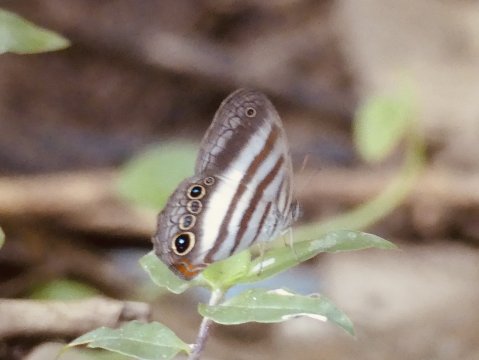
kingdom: Animalia
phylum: Arthropoda
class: Insecta
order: Lepidoptera
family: Nymphalidae
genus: Pareuptychia
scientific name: Pareuptychia hesione
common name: White Satyr
